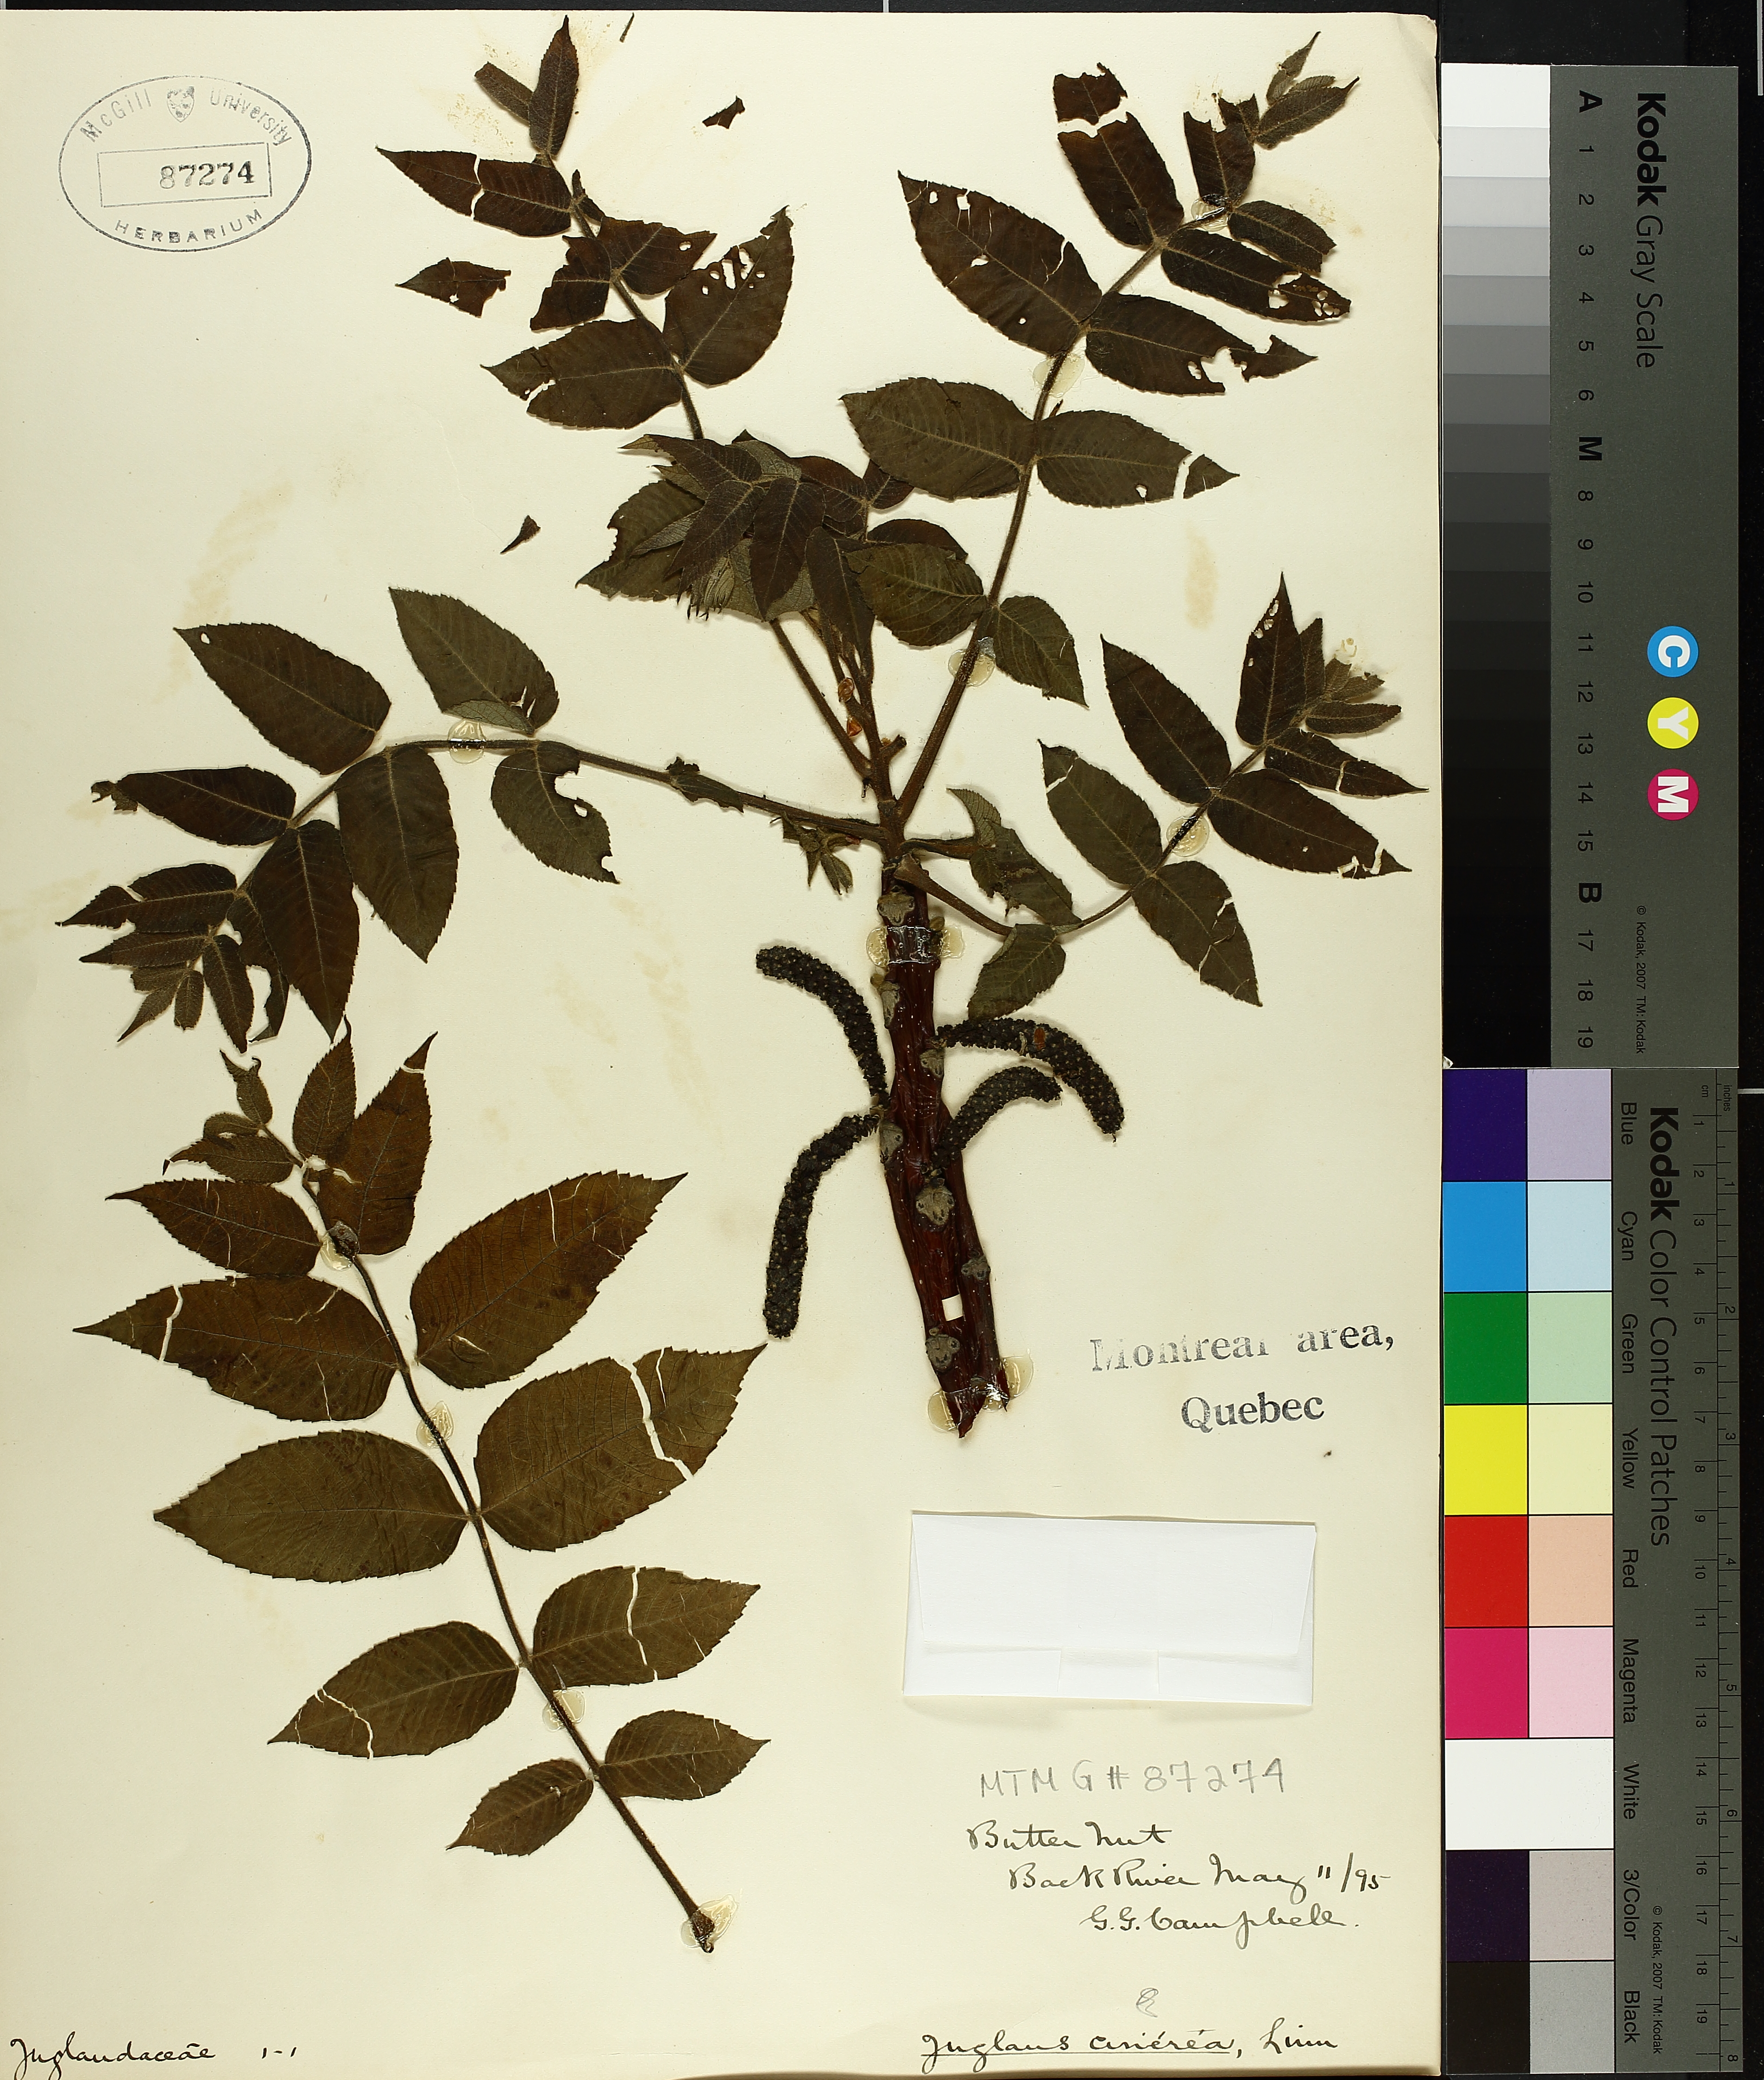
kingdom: Plantae
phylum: Tracheophyta
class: Magnoliopsida
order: Fagales
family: Juglandaceae
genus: Juglans
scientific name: Juglans cinerea
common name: Butternut
